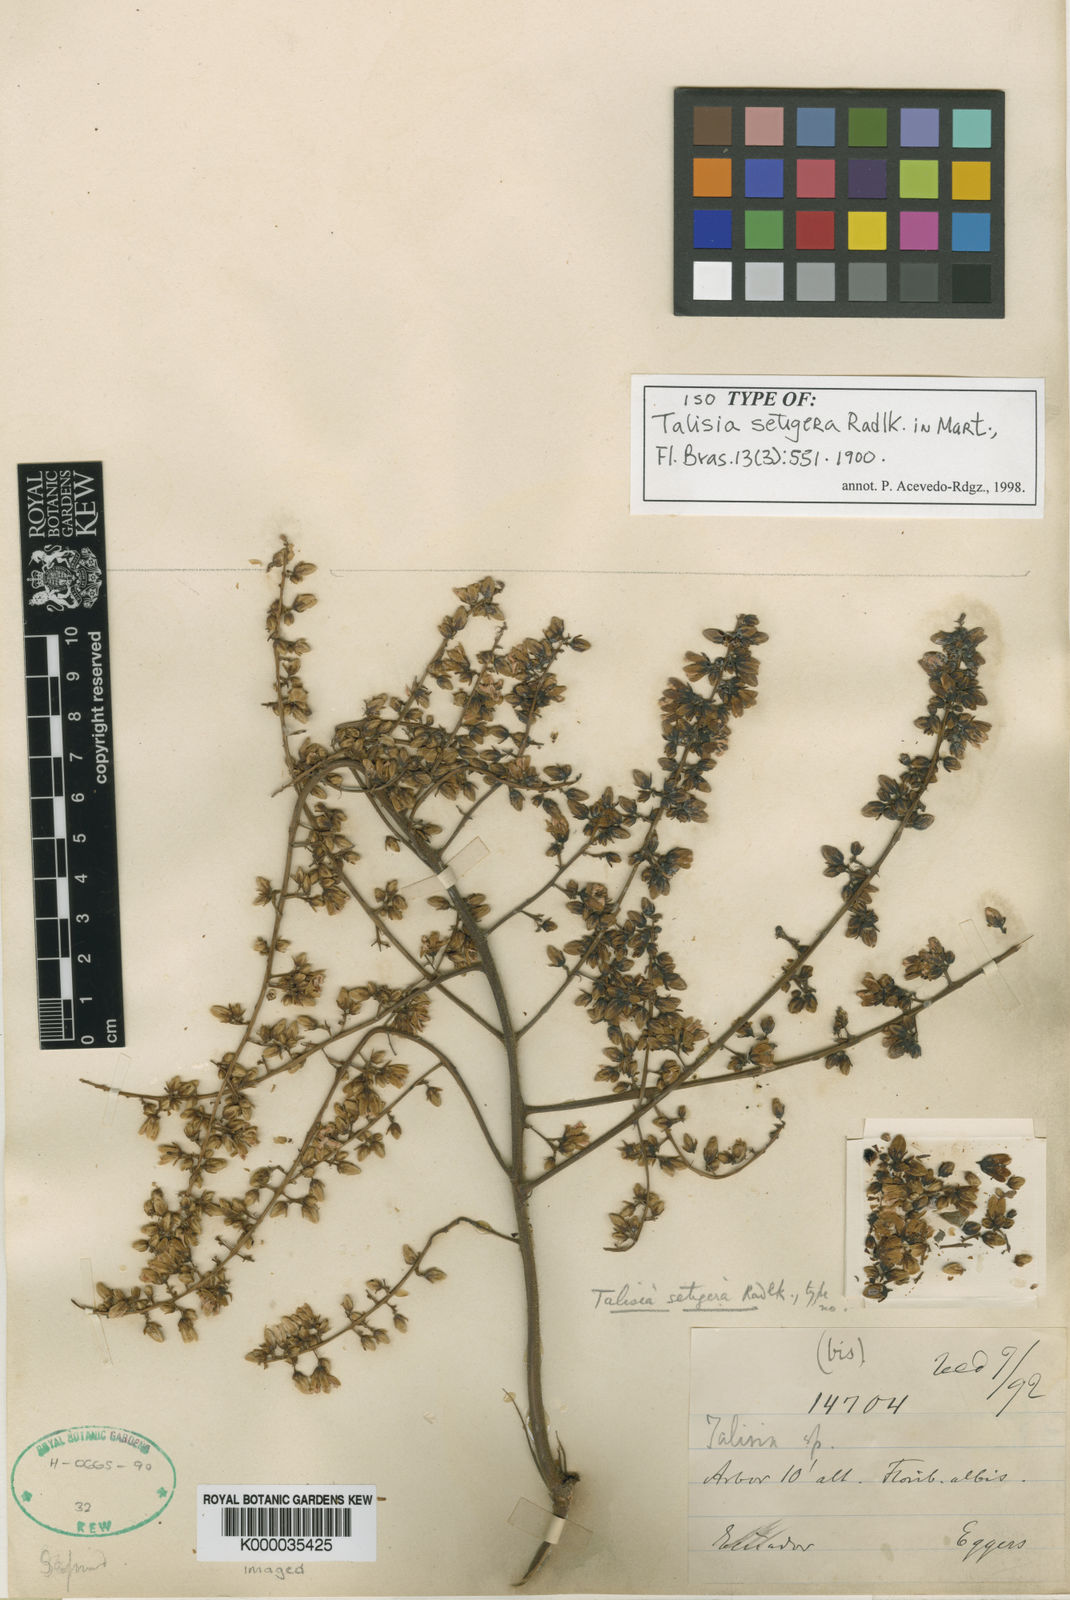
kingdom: Plantae
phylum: Tracheophyta
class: Magnoliopsida
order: Sapindales
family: Sapindaceae
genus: Talisia
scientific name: Talisia setigera
